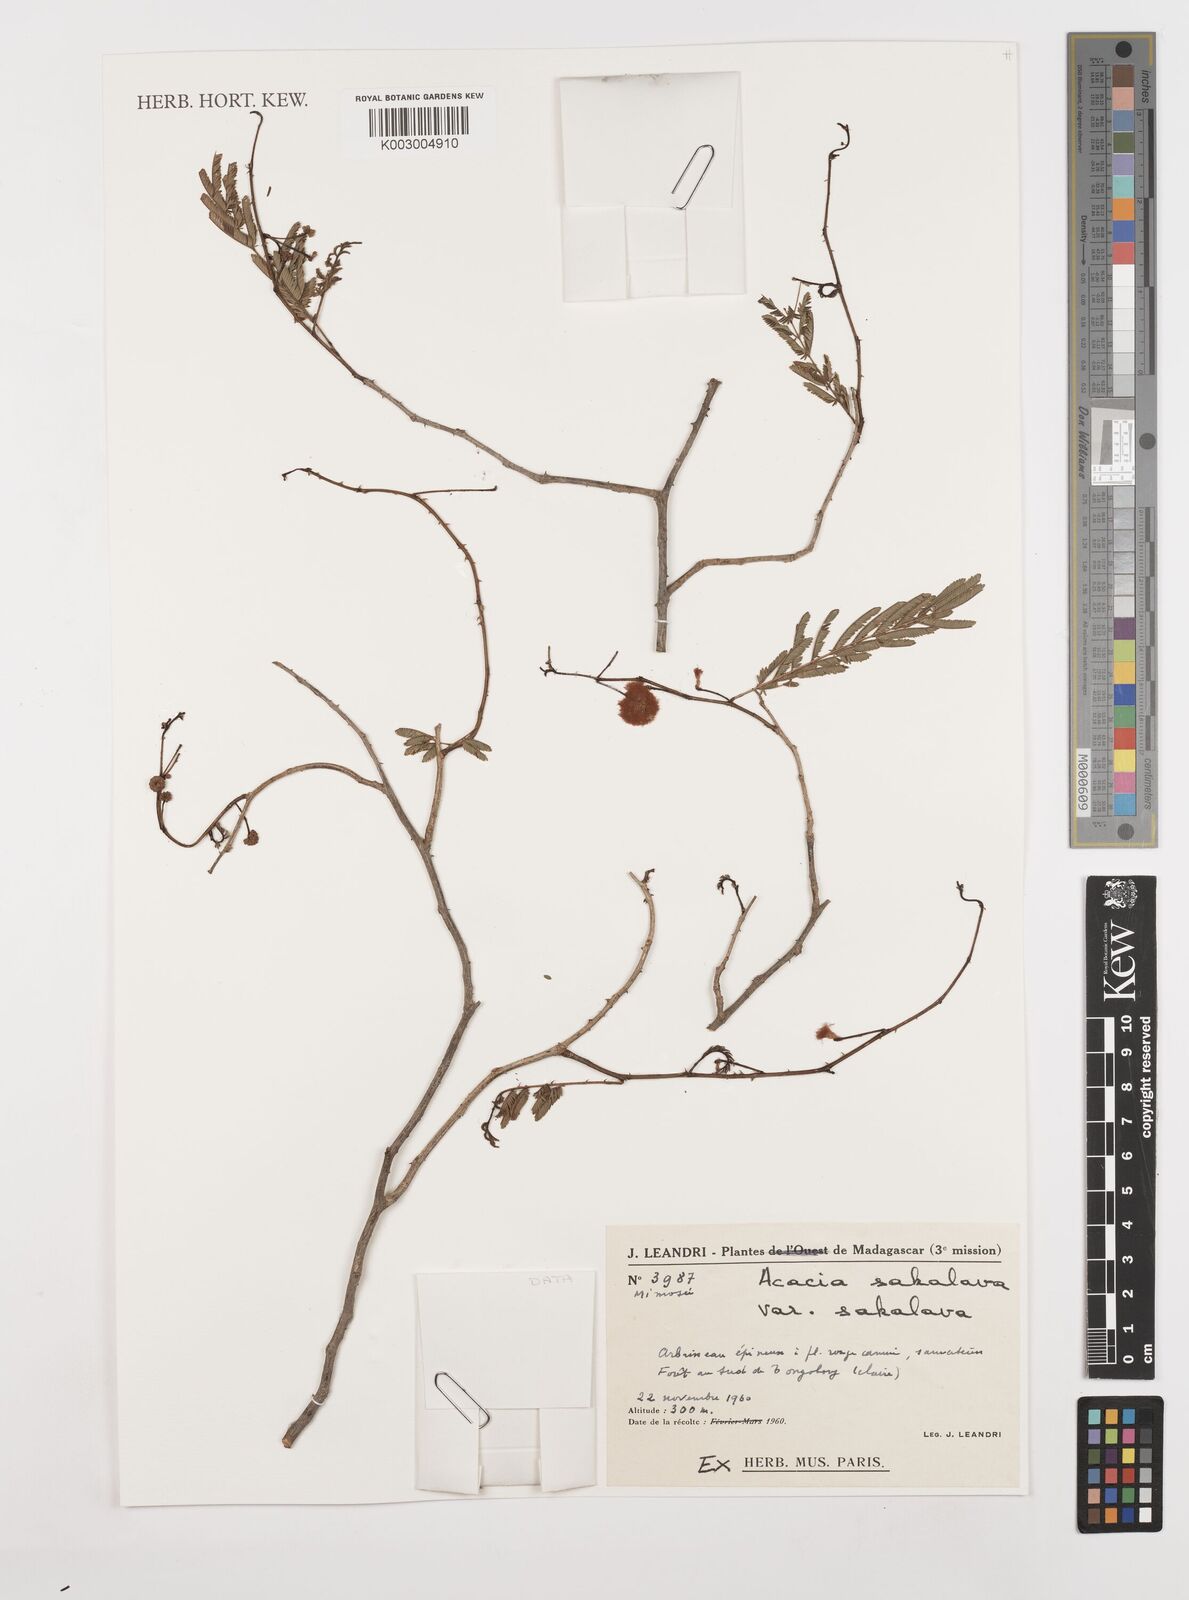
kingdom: Plantae
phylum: Tracheophyta
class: Magnoliopsida
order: Fabales
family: Fabaceae
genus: Senegalia
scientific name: Senegalia sakalava
